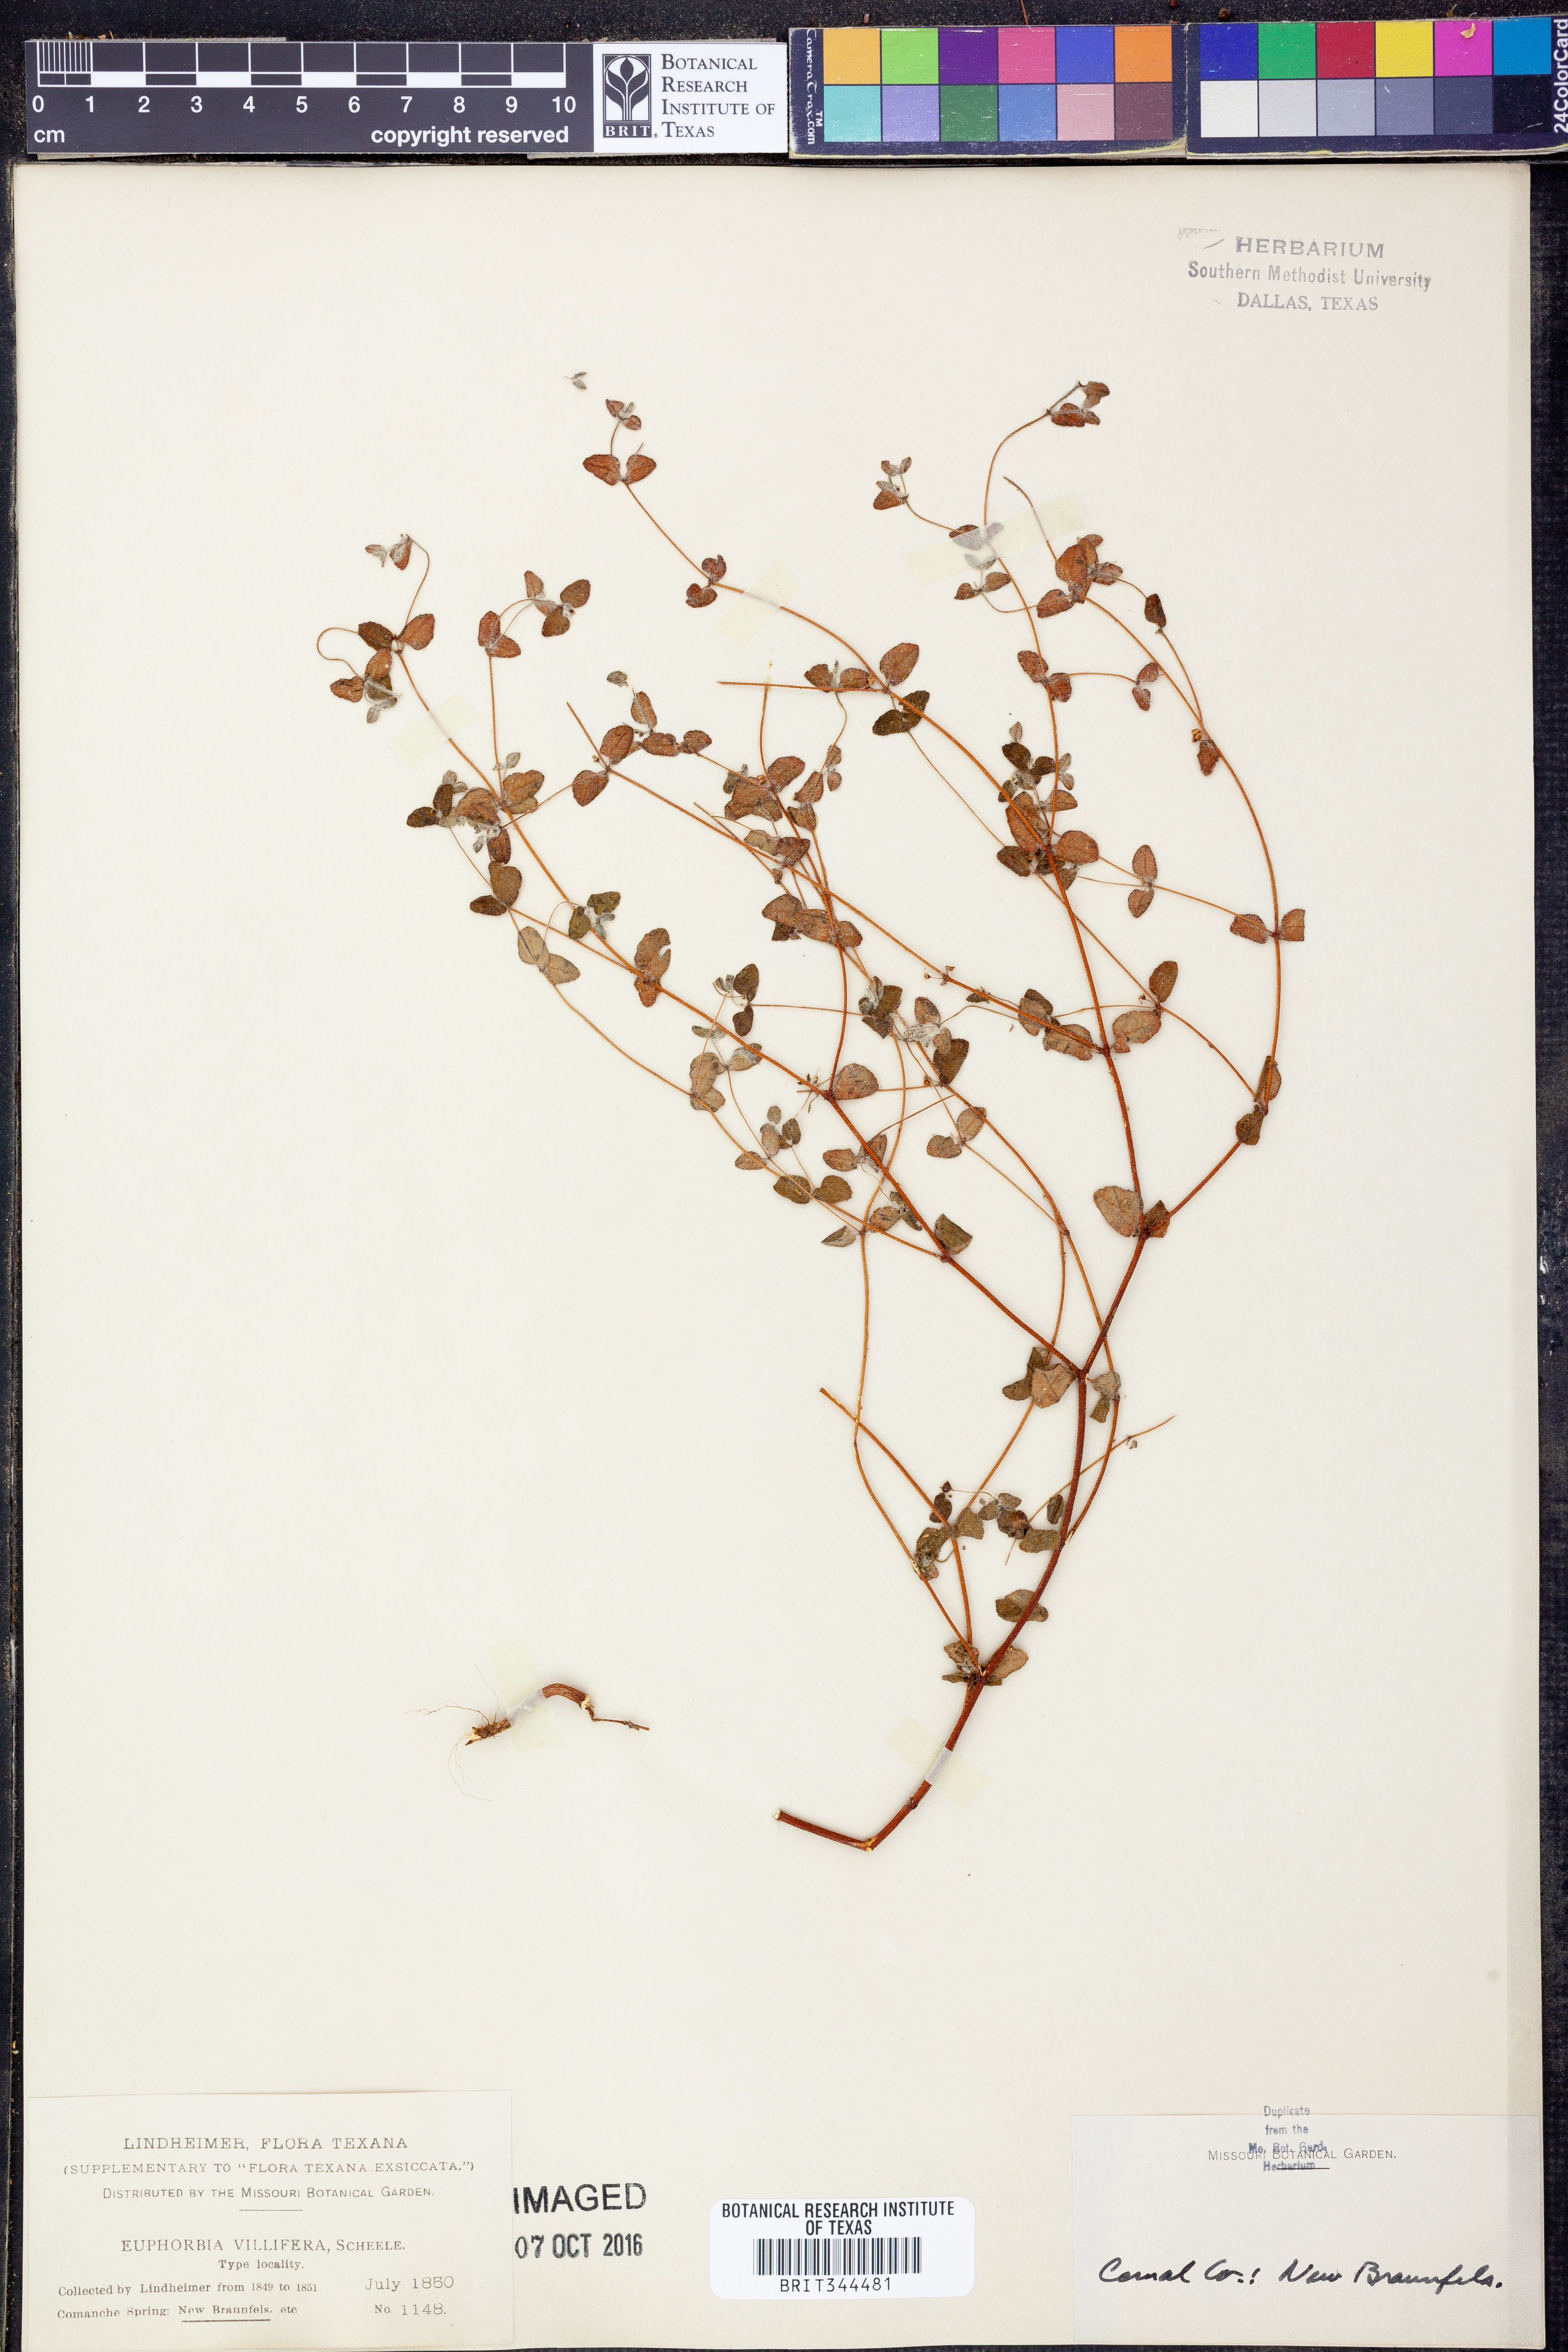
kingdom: Plantae
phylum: Tracheophyta
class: Magnoliopsida
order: Malpighiales
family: Euphorbiaceae
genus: Euphorbia
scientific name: Euphorbia villifera
